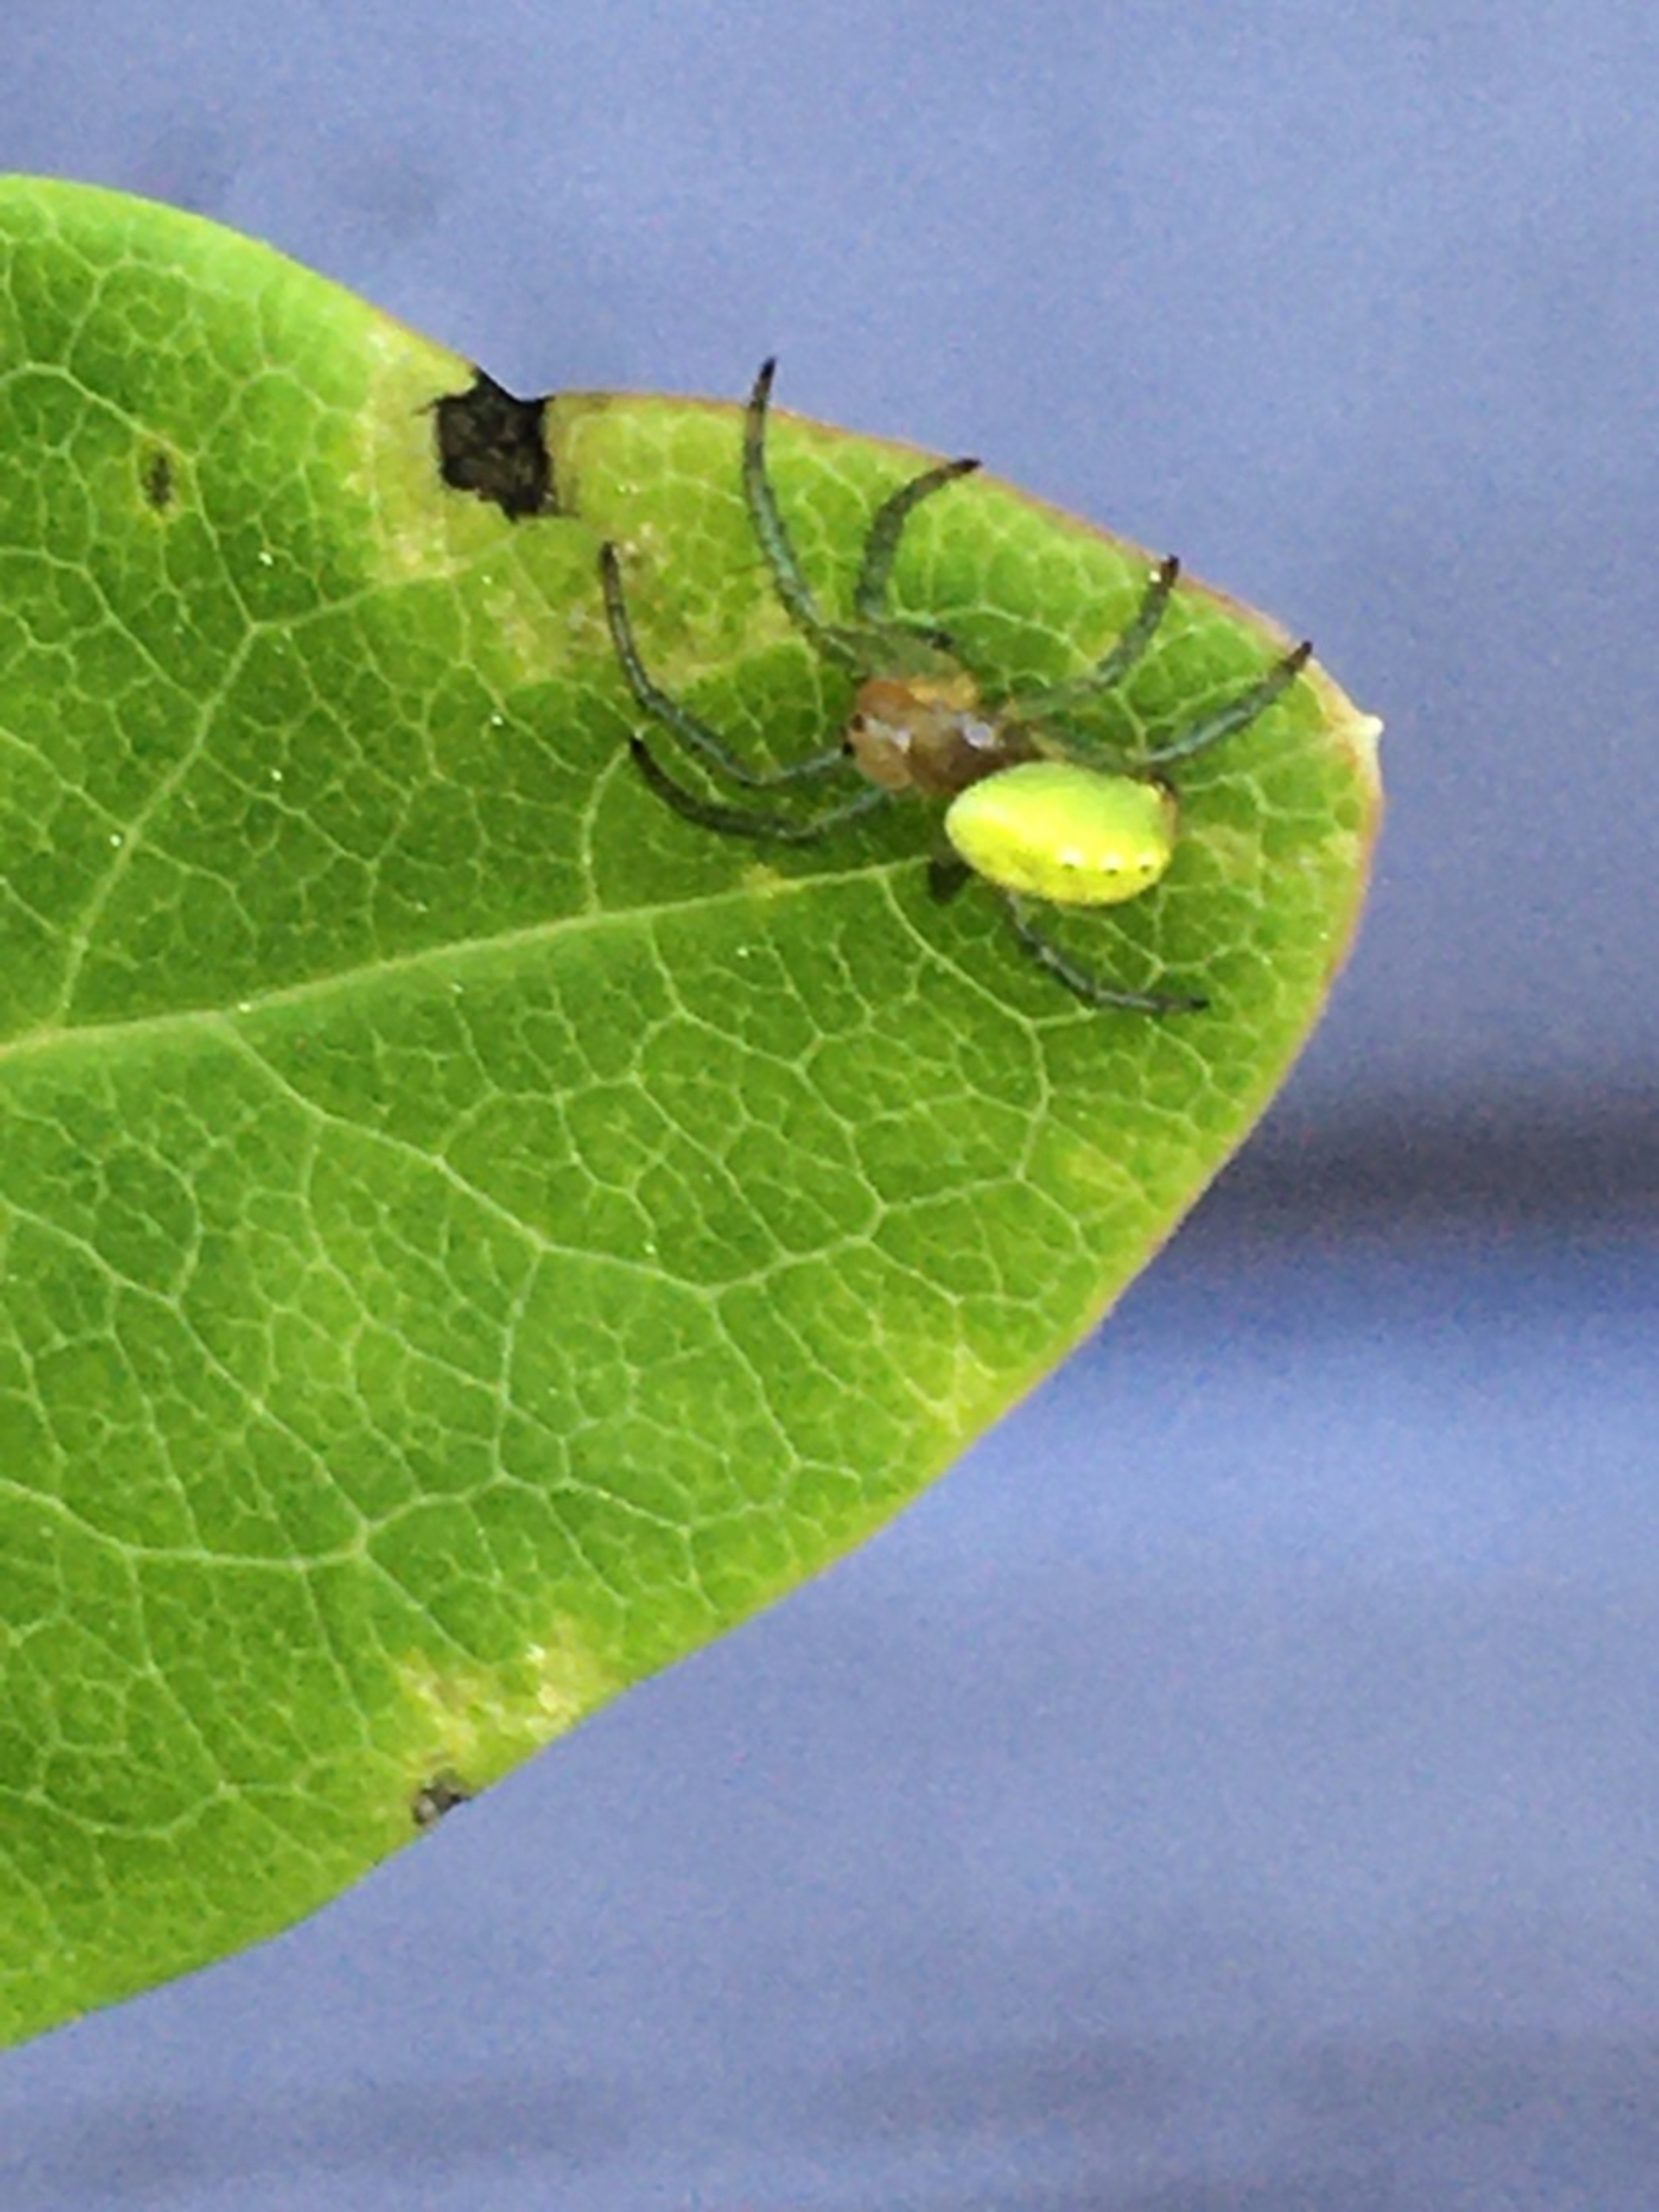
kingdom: Animalia
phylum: Arthropoda
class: Arachnida
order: Araneae
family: Araneidae
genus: Araniella
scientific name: Araniella
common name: Agurkeedderkopslægten
